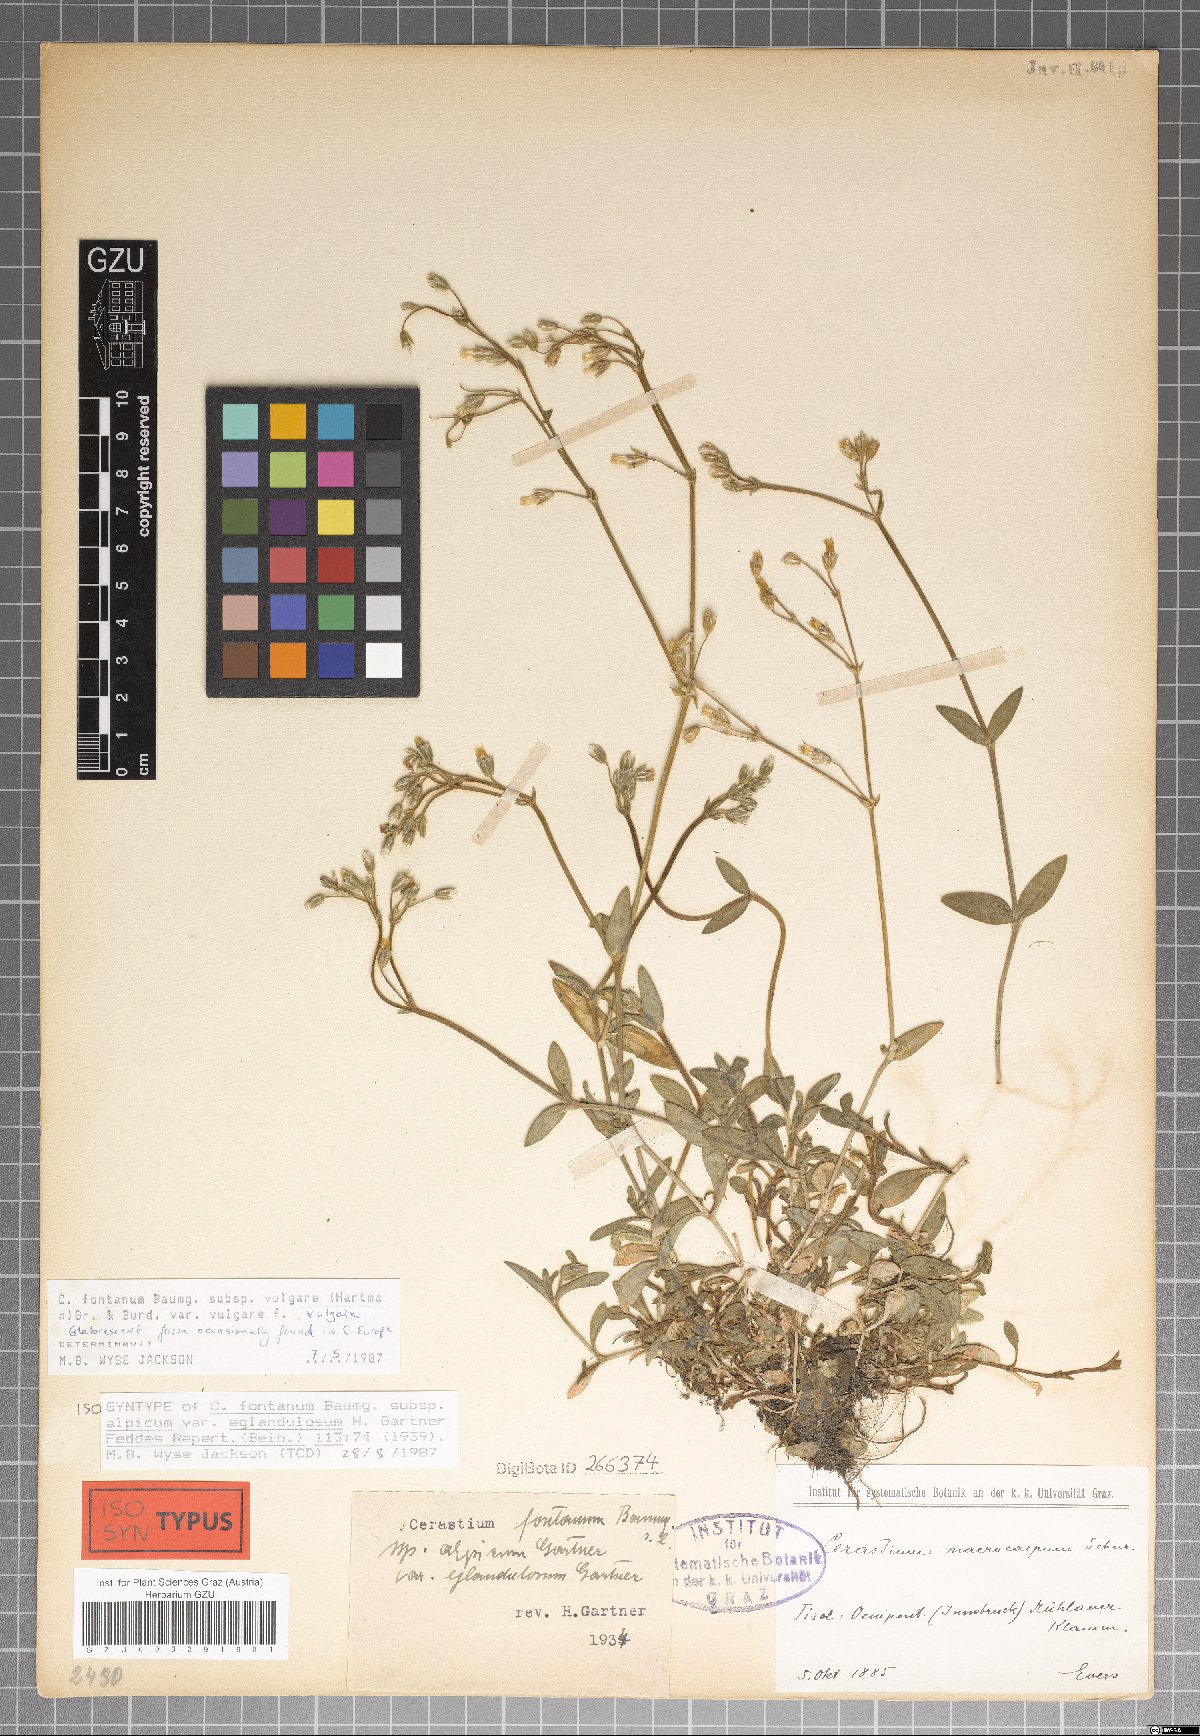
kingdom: Plantae
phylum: Tracheophyta
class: Magnoliopsida
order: Caryophyllales
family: Caryophyllaceae
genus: Cerastium
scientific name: Cerastium holosteoides
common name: Big chickweed
